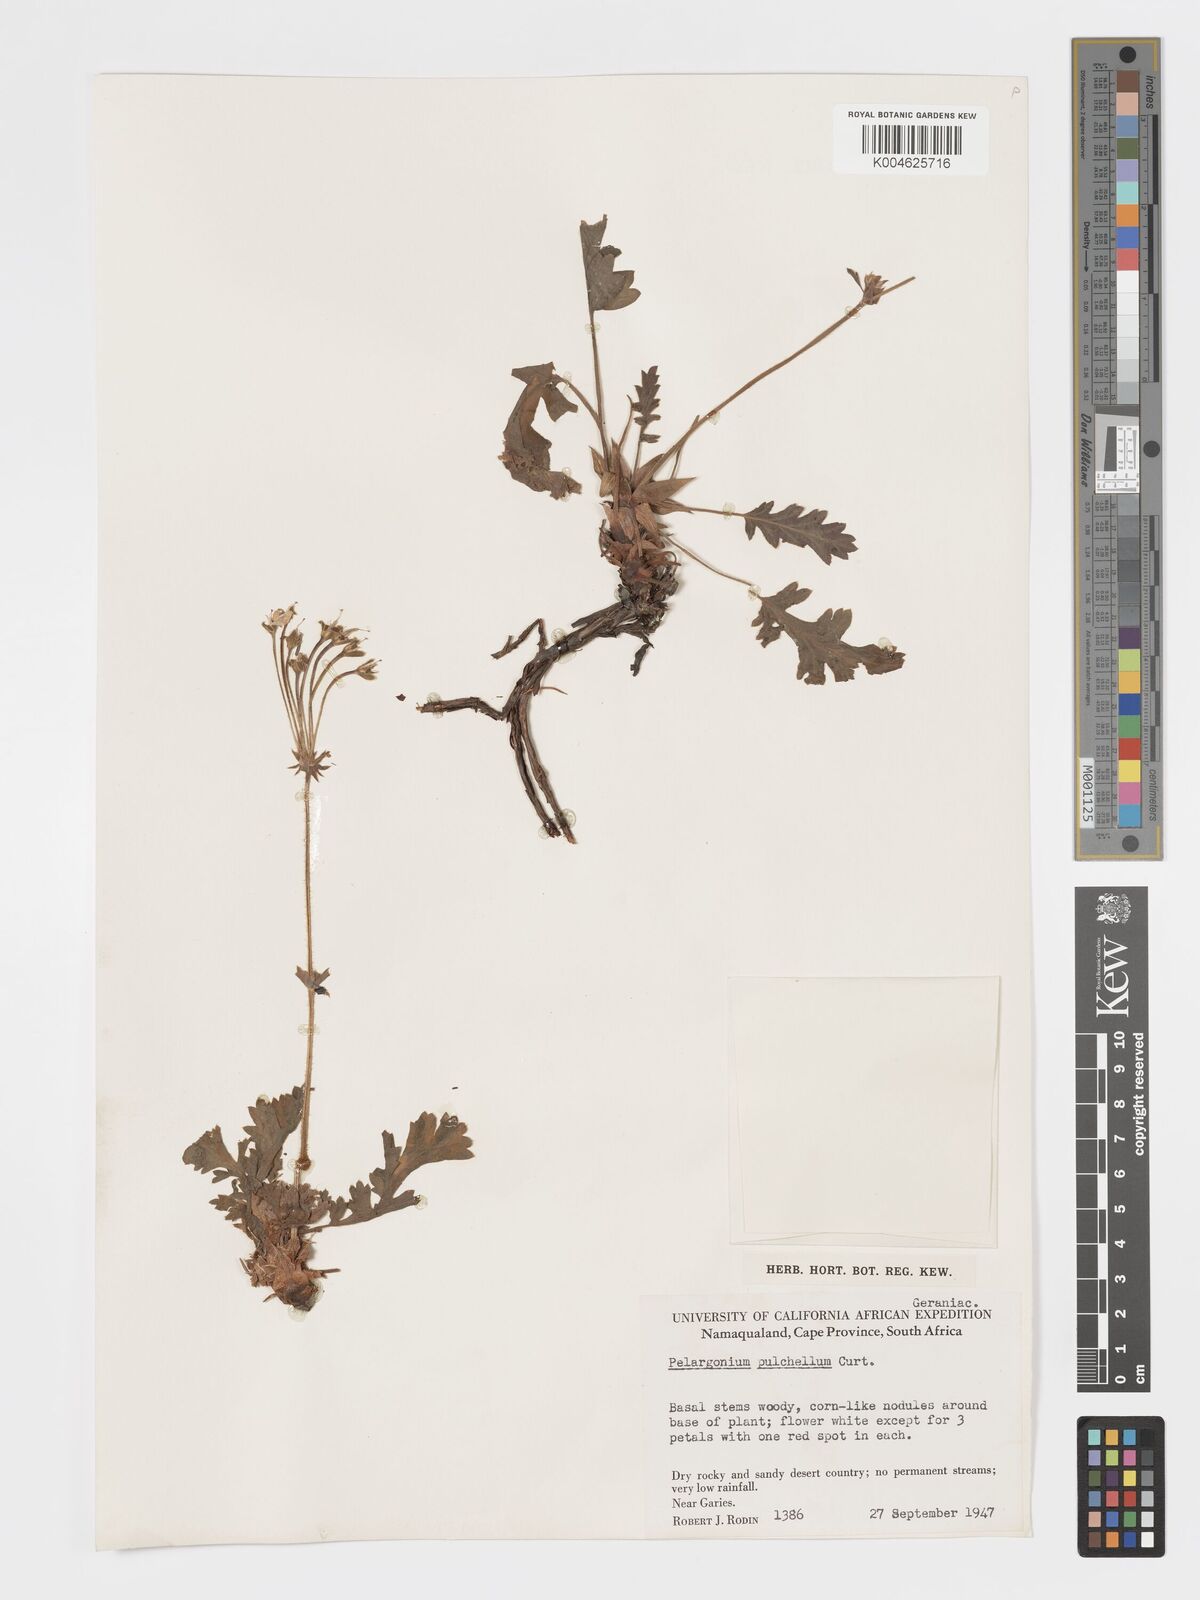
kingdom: Plantae
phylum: Tracheophyta
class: Magnoliopsida
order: Geraniales
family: Geraniaceae
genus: Pelargonium
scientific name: Pelargonium
